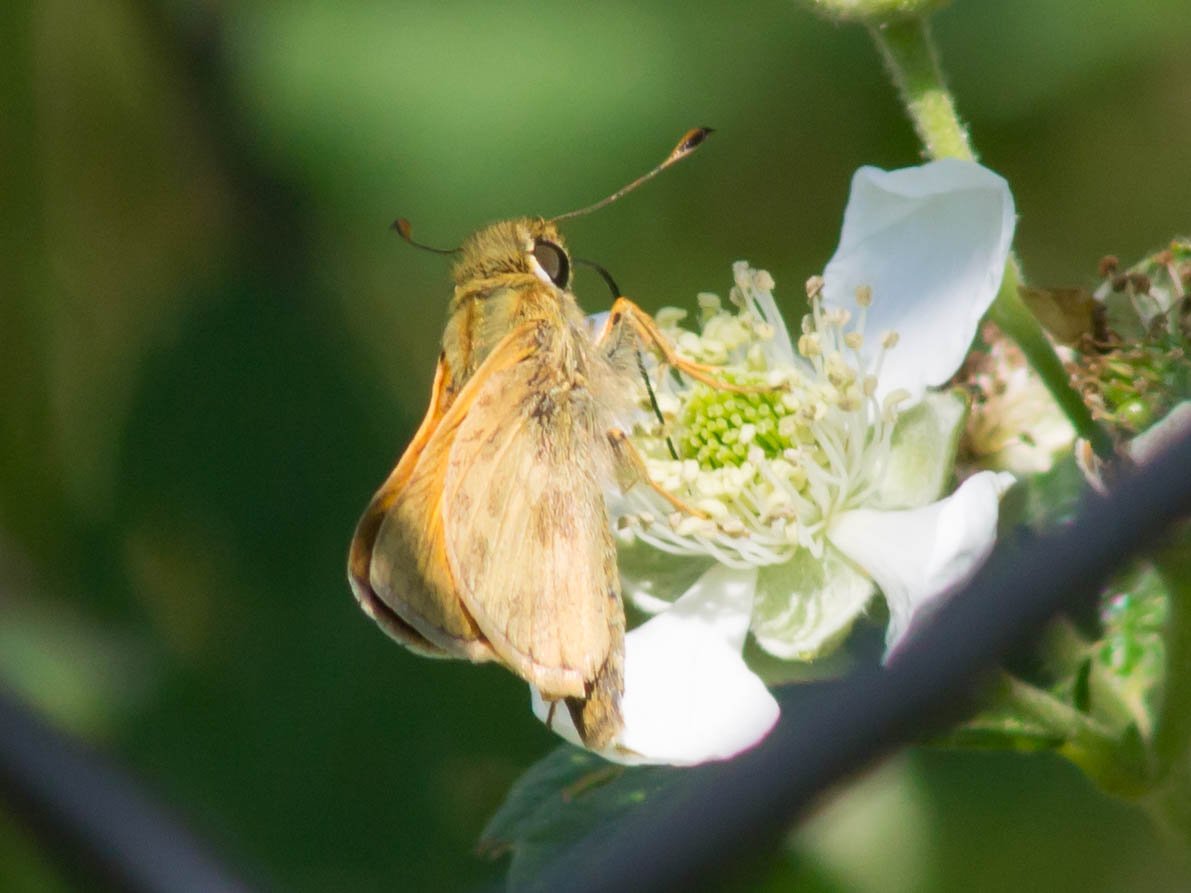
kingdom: Animalia
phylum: Arthropoda
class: Insecta
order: Lepidoptera
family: Hesperiidae
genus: Atalopedes
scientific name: Atalopedes campestris
